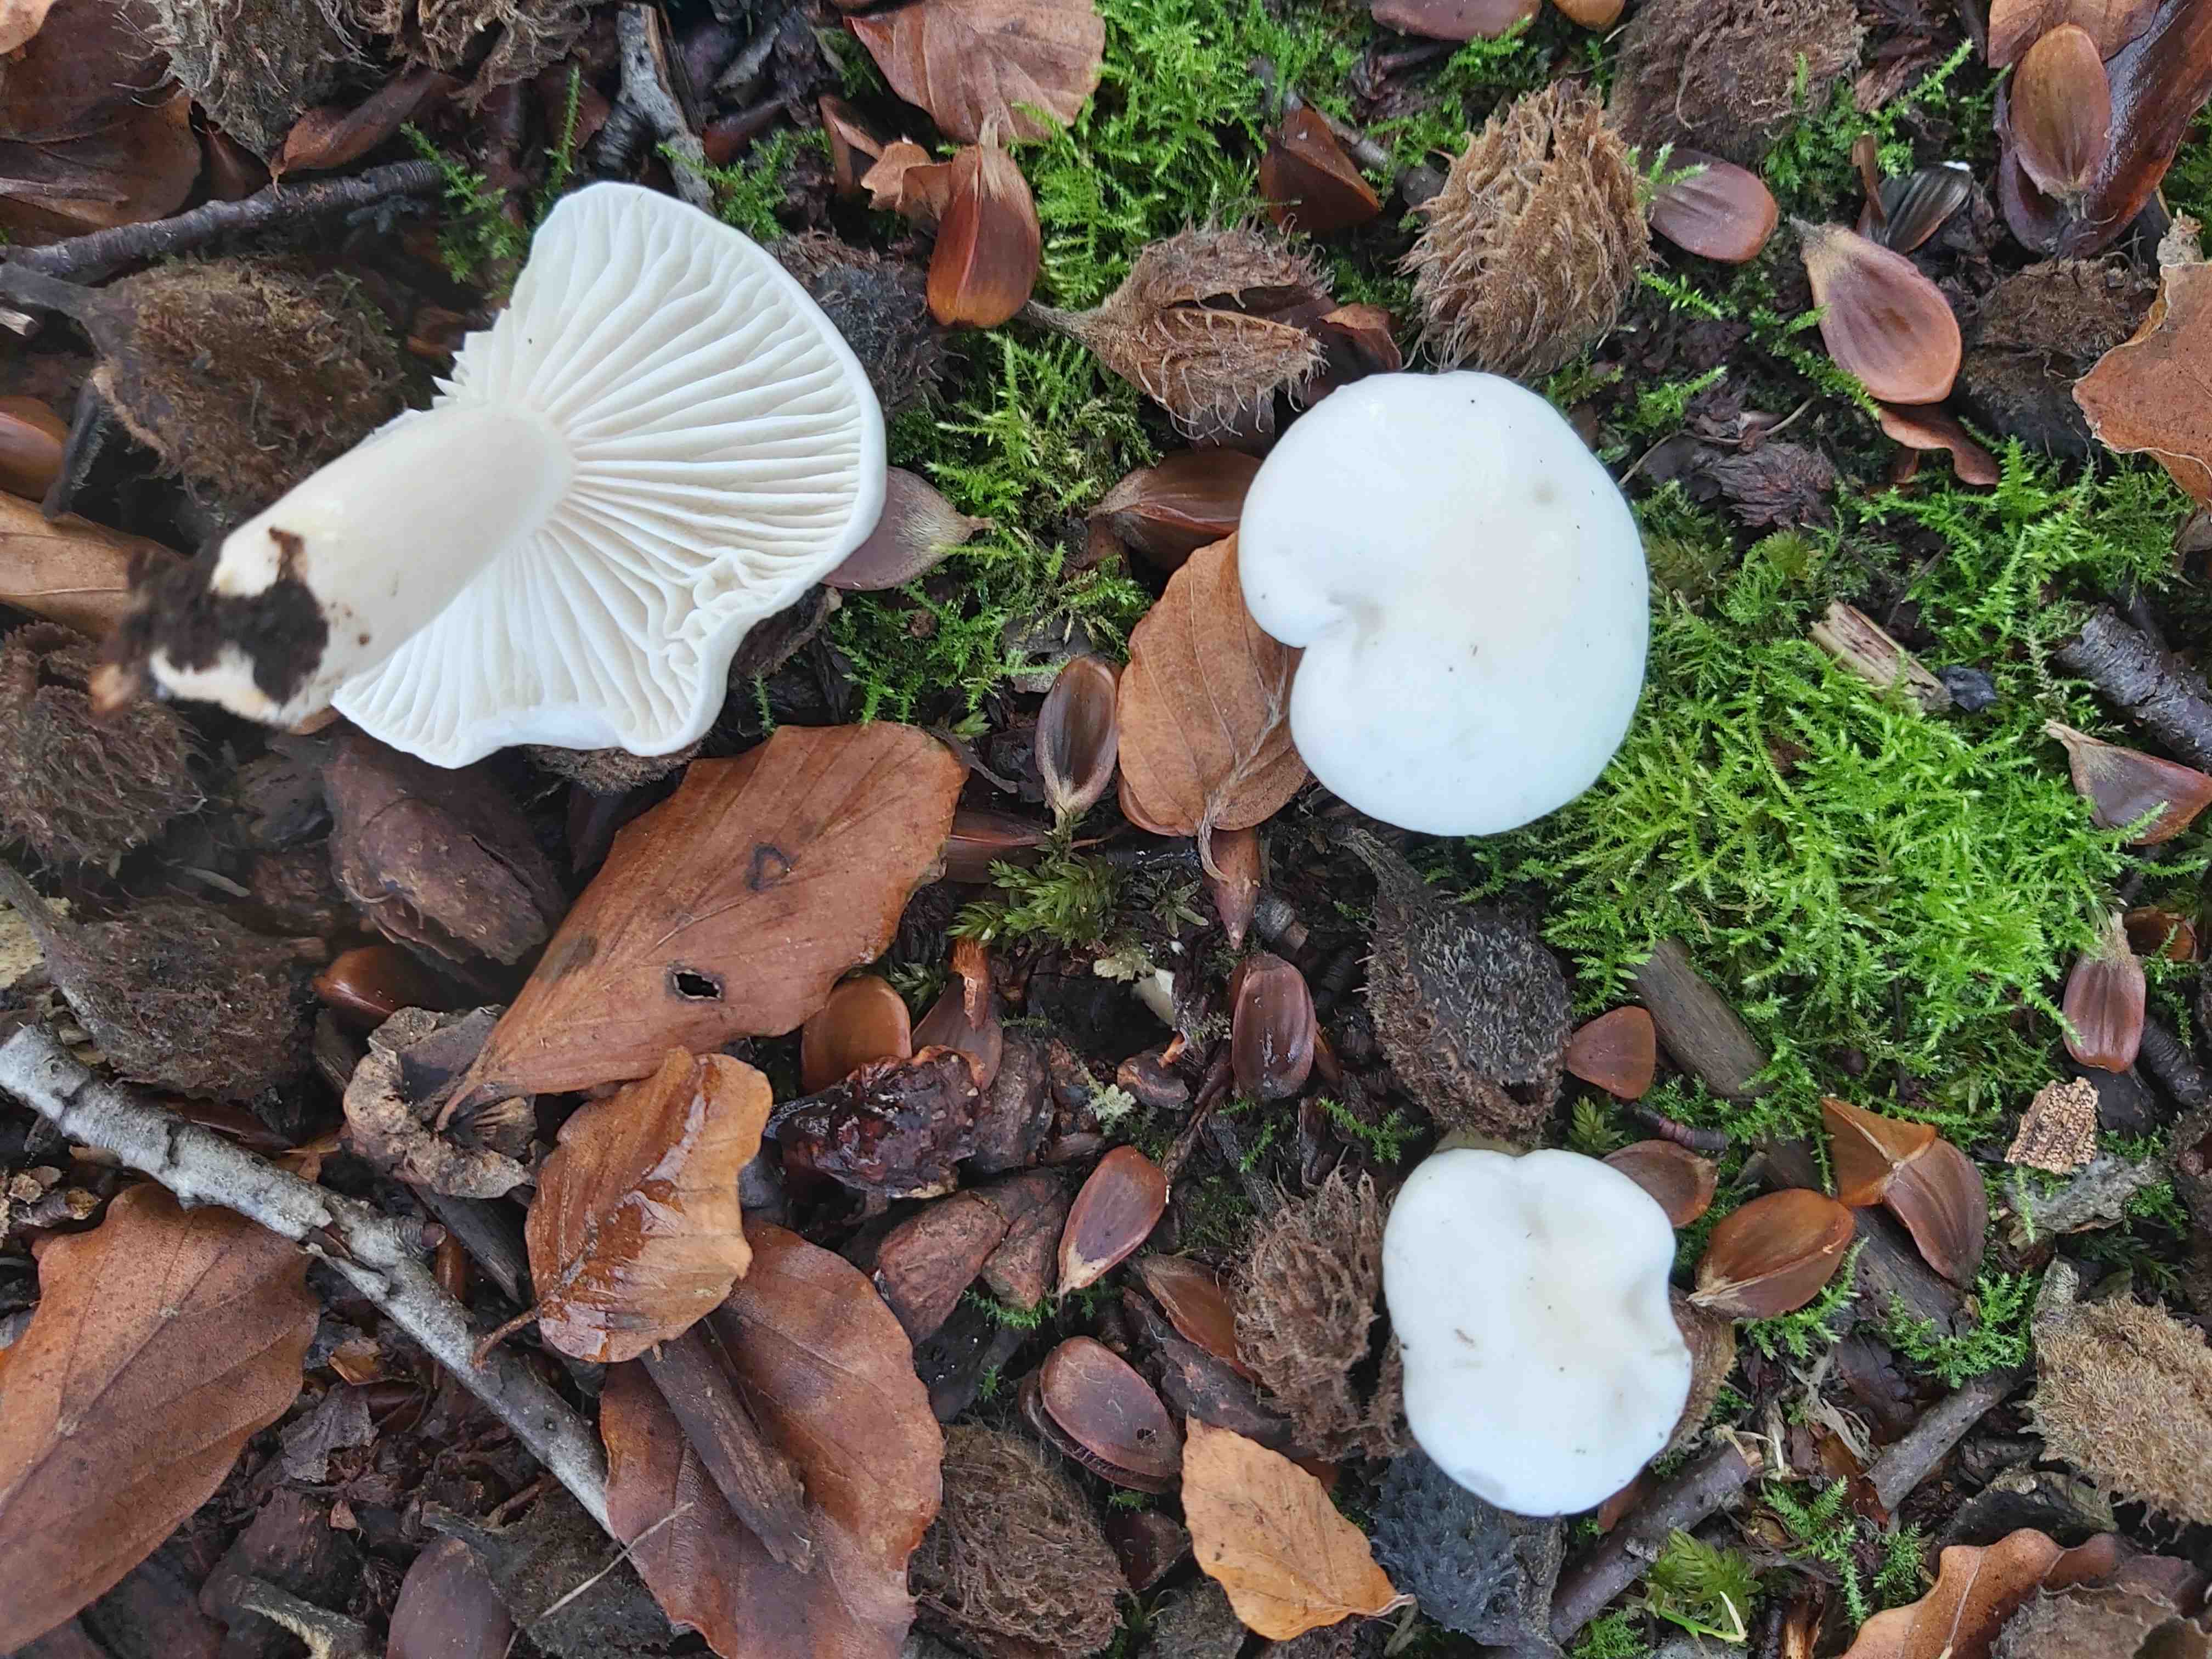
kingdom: Fungi
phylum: Basidiomycota
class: Agaricomycetes
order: Agaricales
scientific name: Agaricales
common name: champignonordenen
